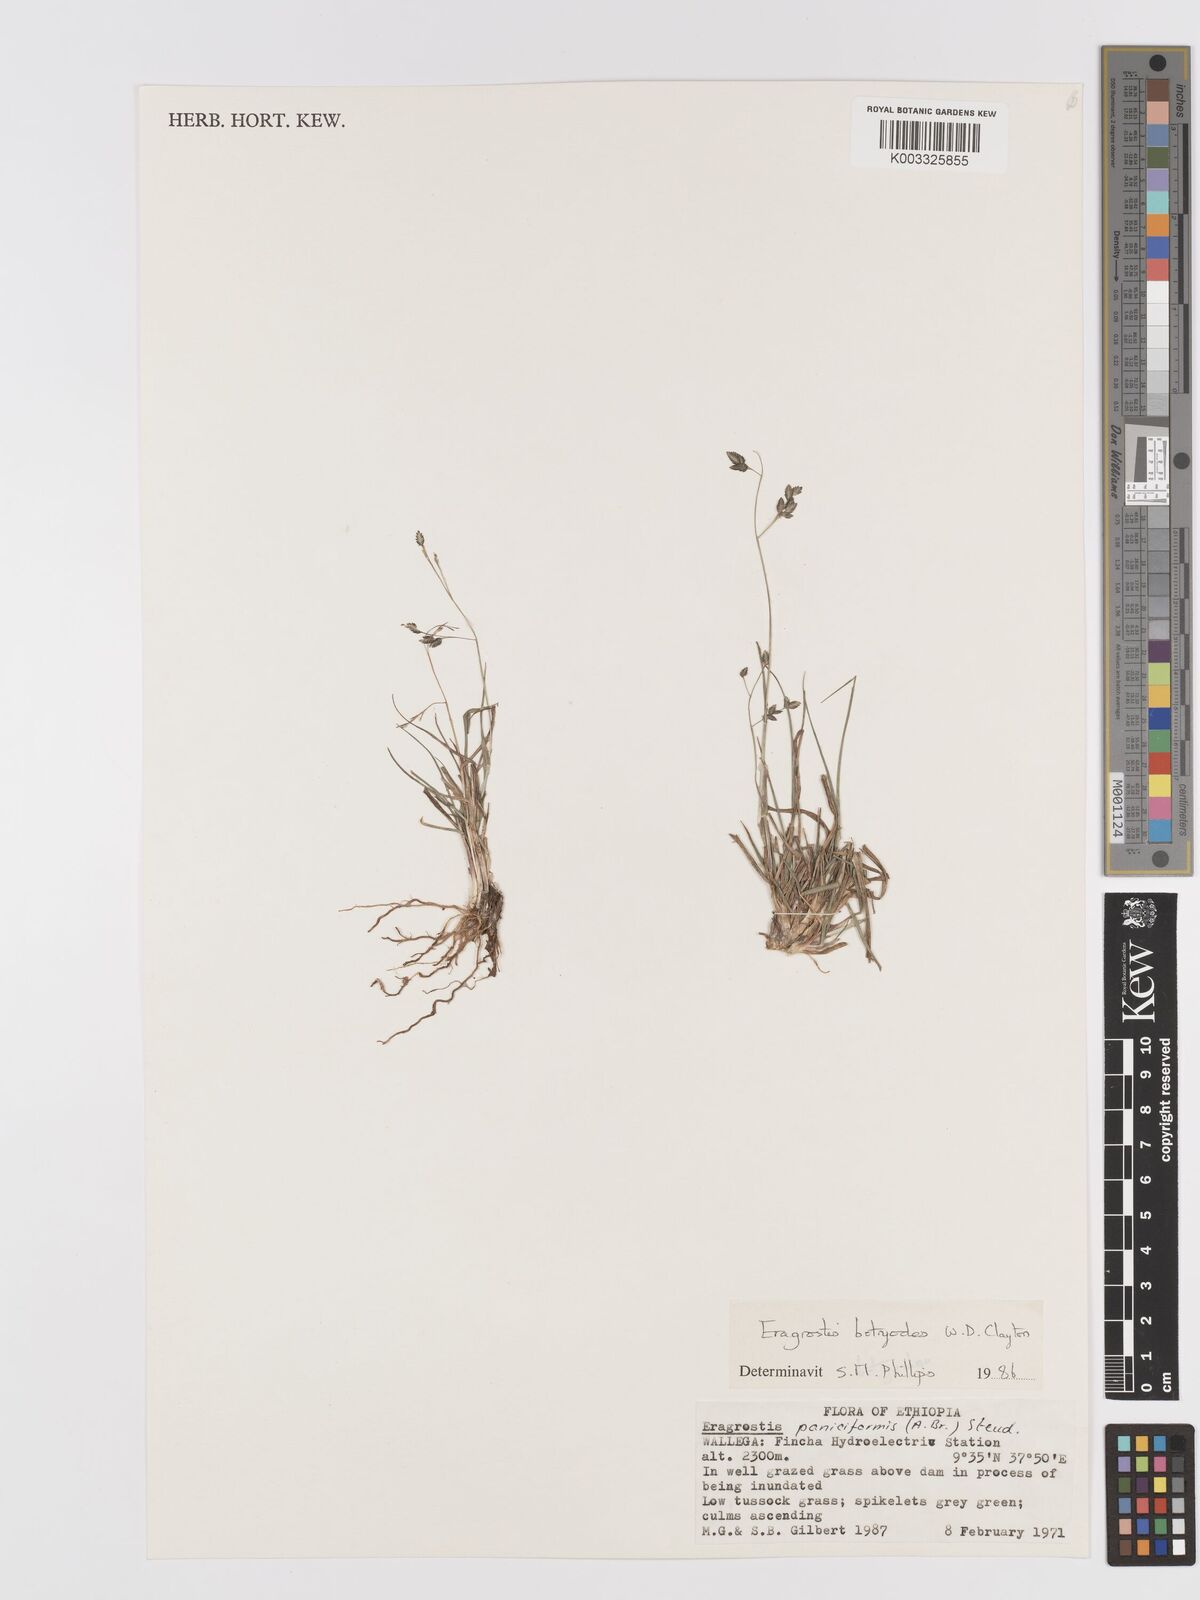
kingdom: Plantae
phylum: Tracheophyta
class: Liliopsida
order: Poales
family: Poaceae
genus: Eragrostis
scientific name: Eragrostis botryodes
